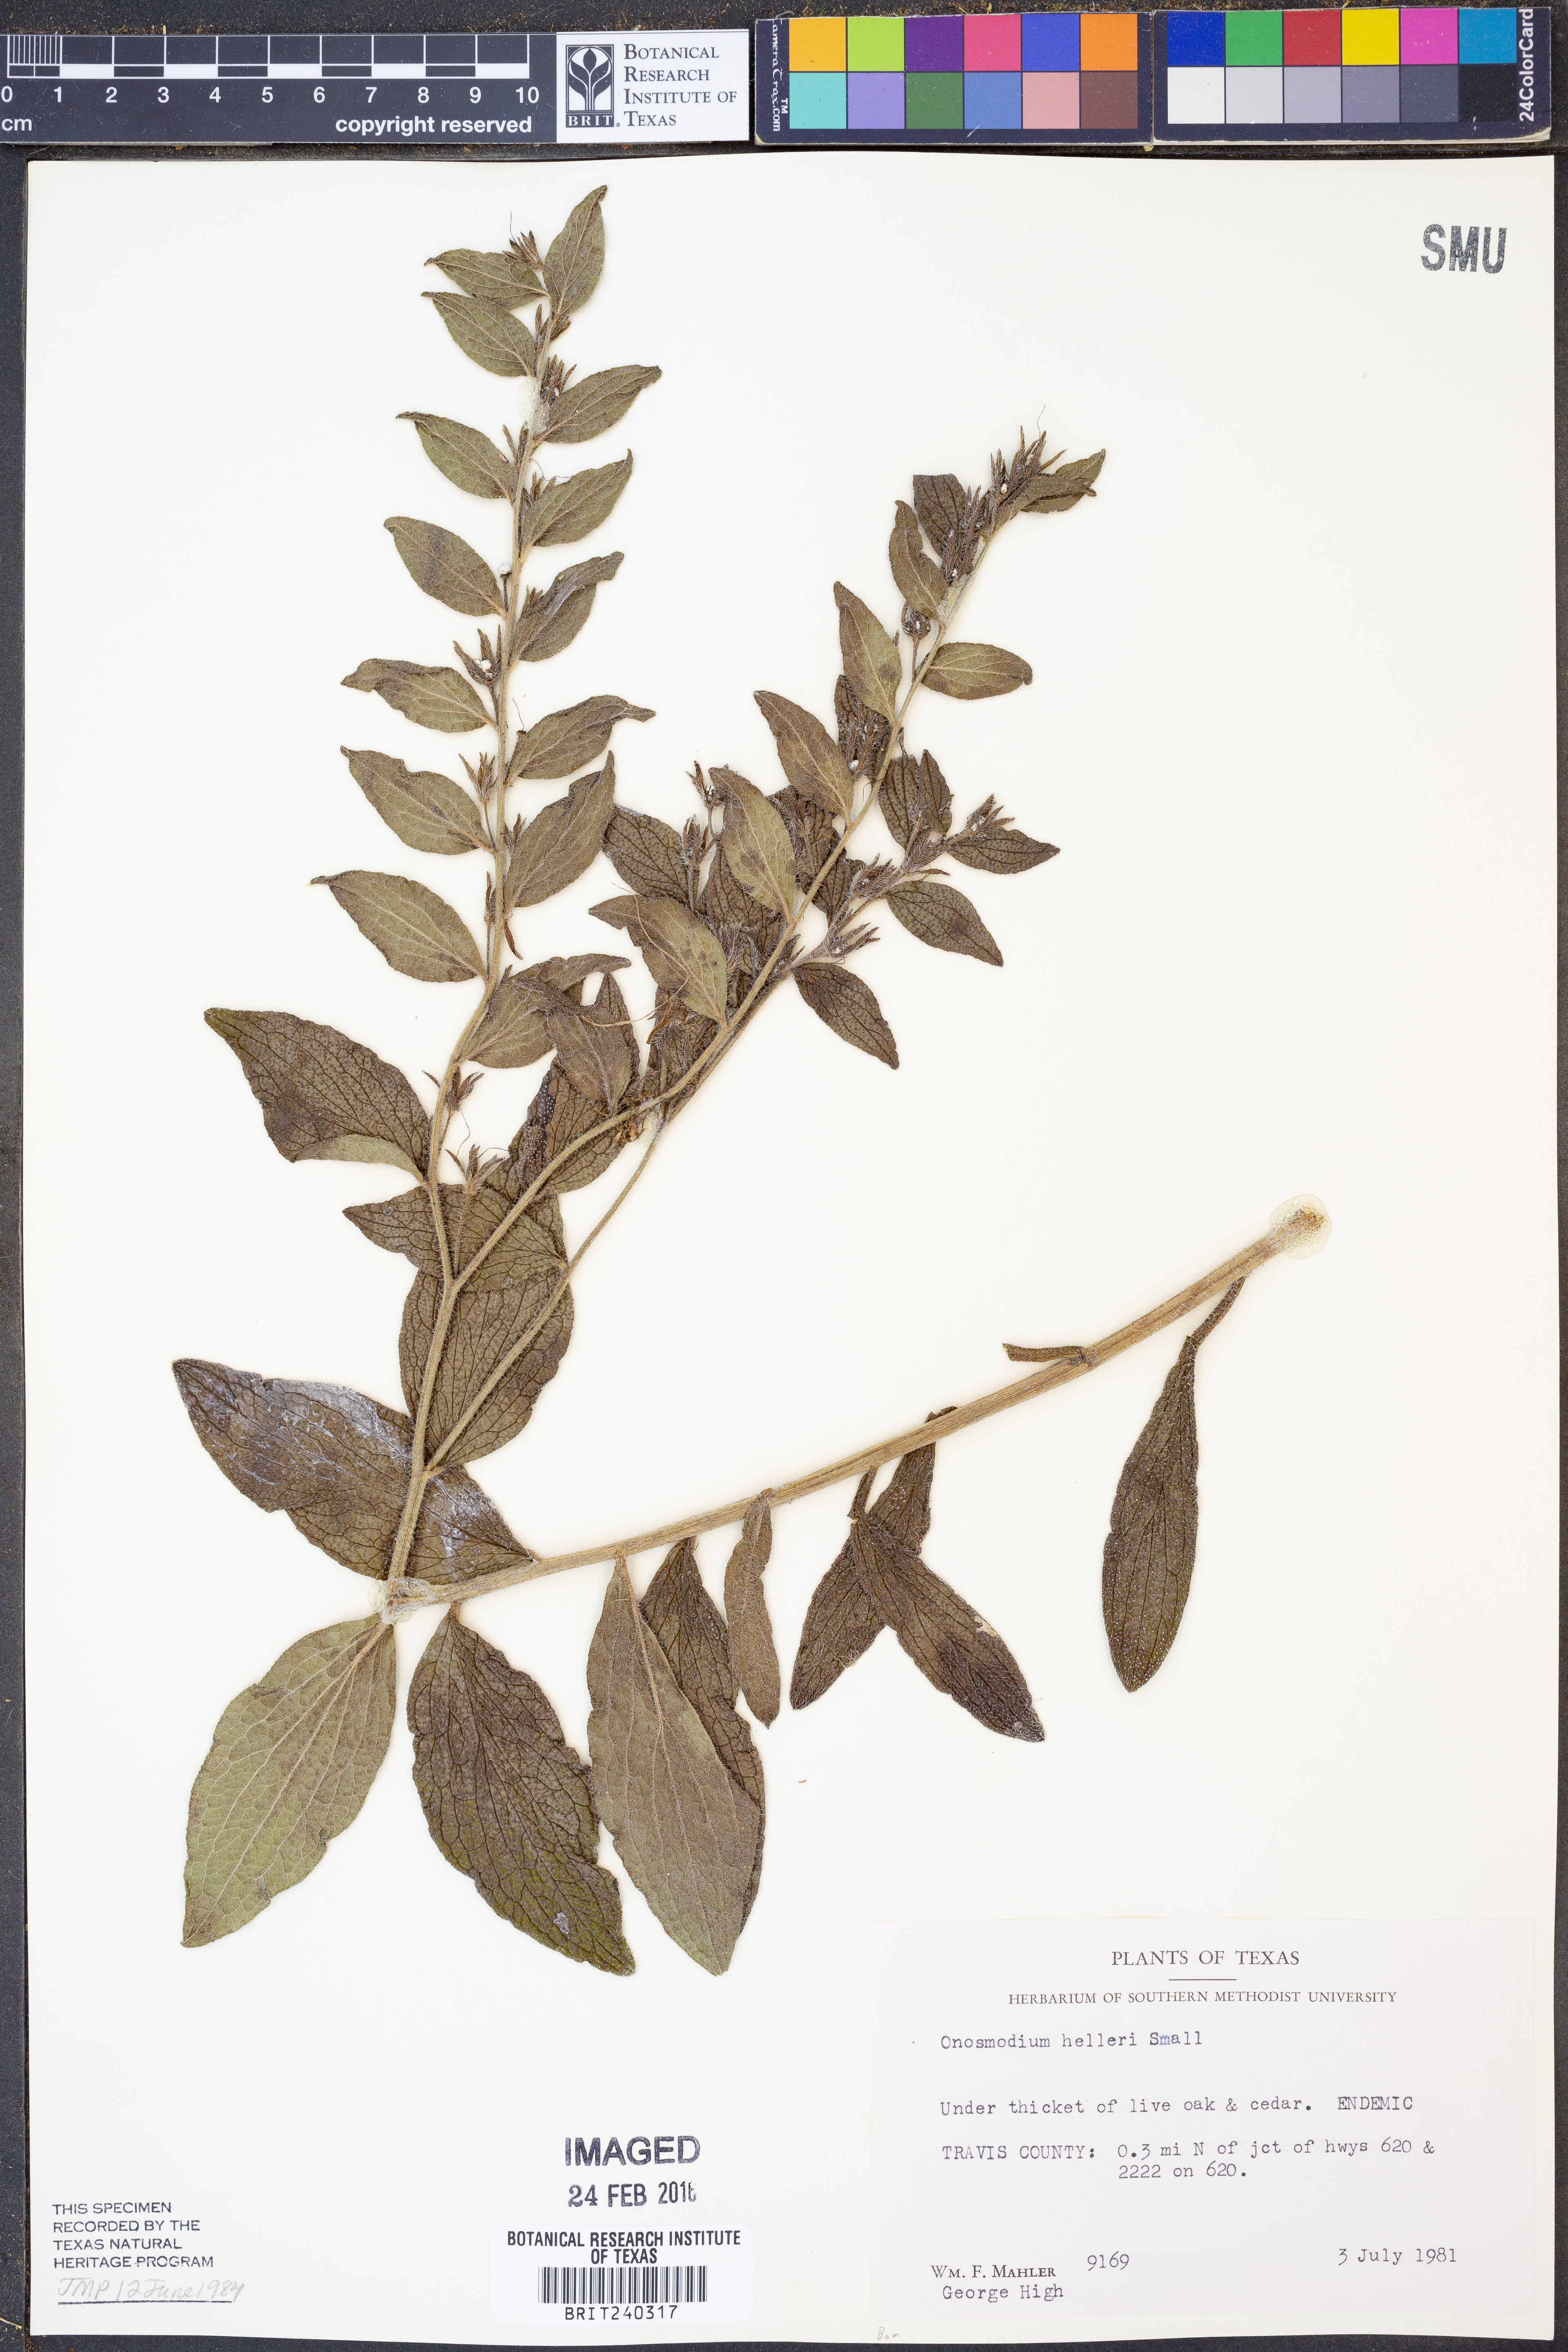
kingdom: Plantae
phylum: Tracheophyta
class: Magnoliopsida
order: Boraginales
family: Boraginaceae
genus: Lithospermum
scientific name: Lithospermum helleri
